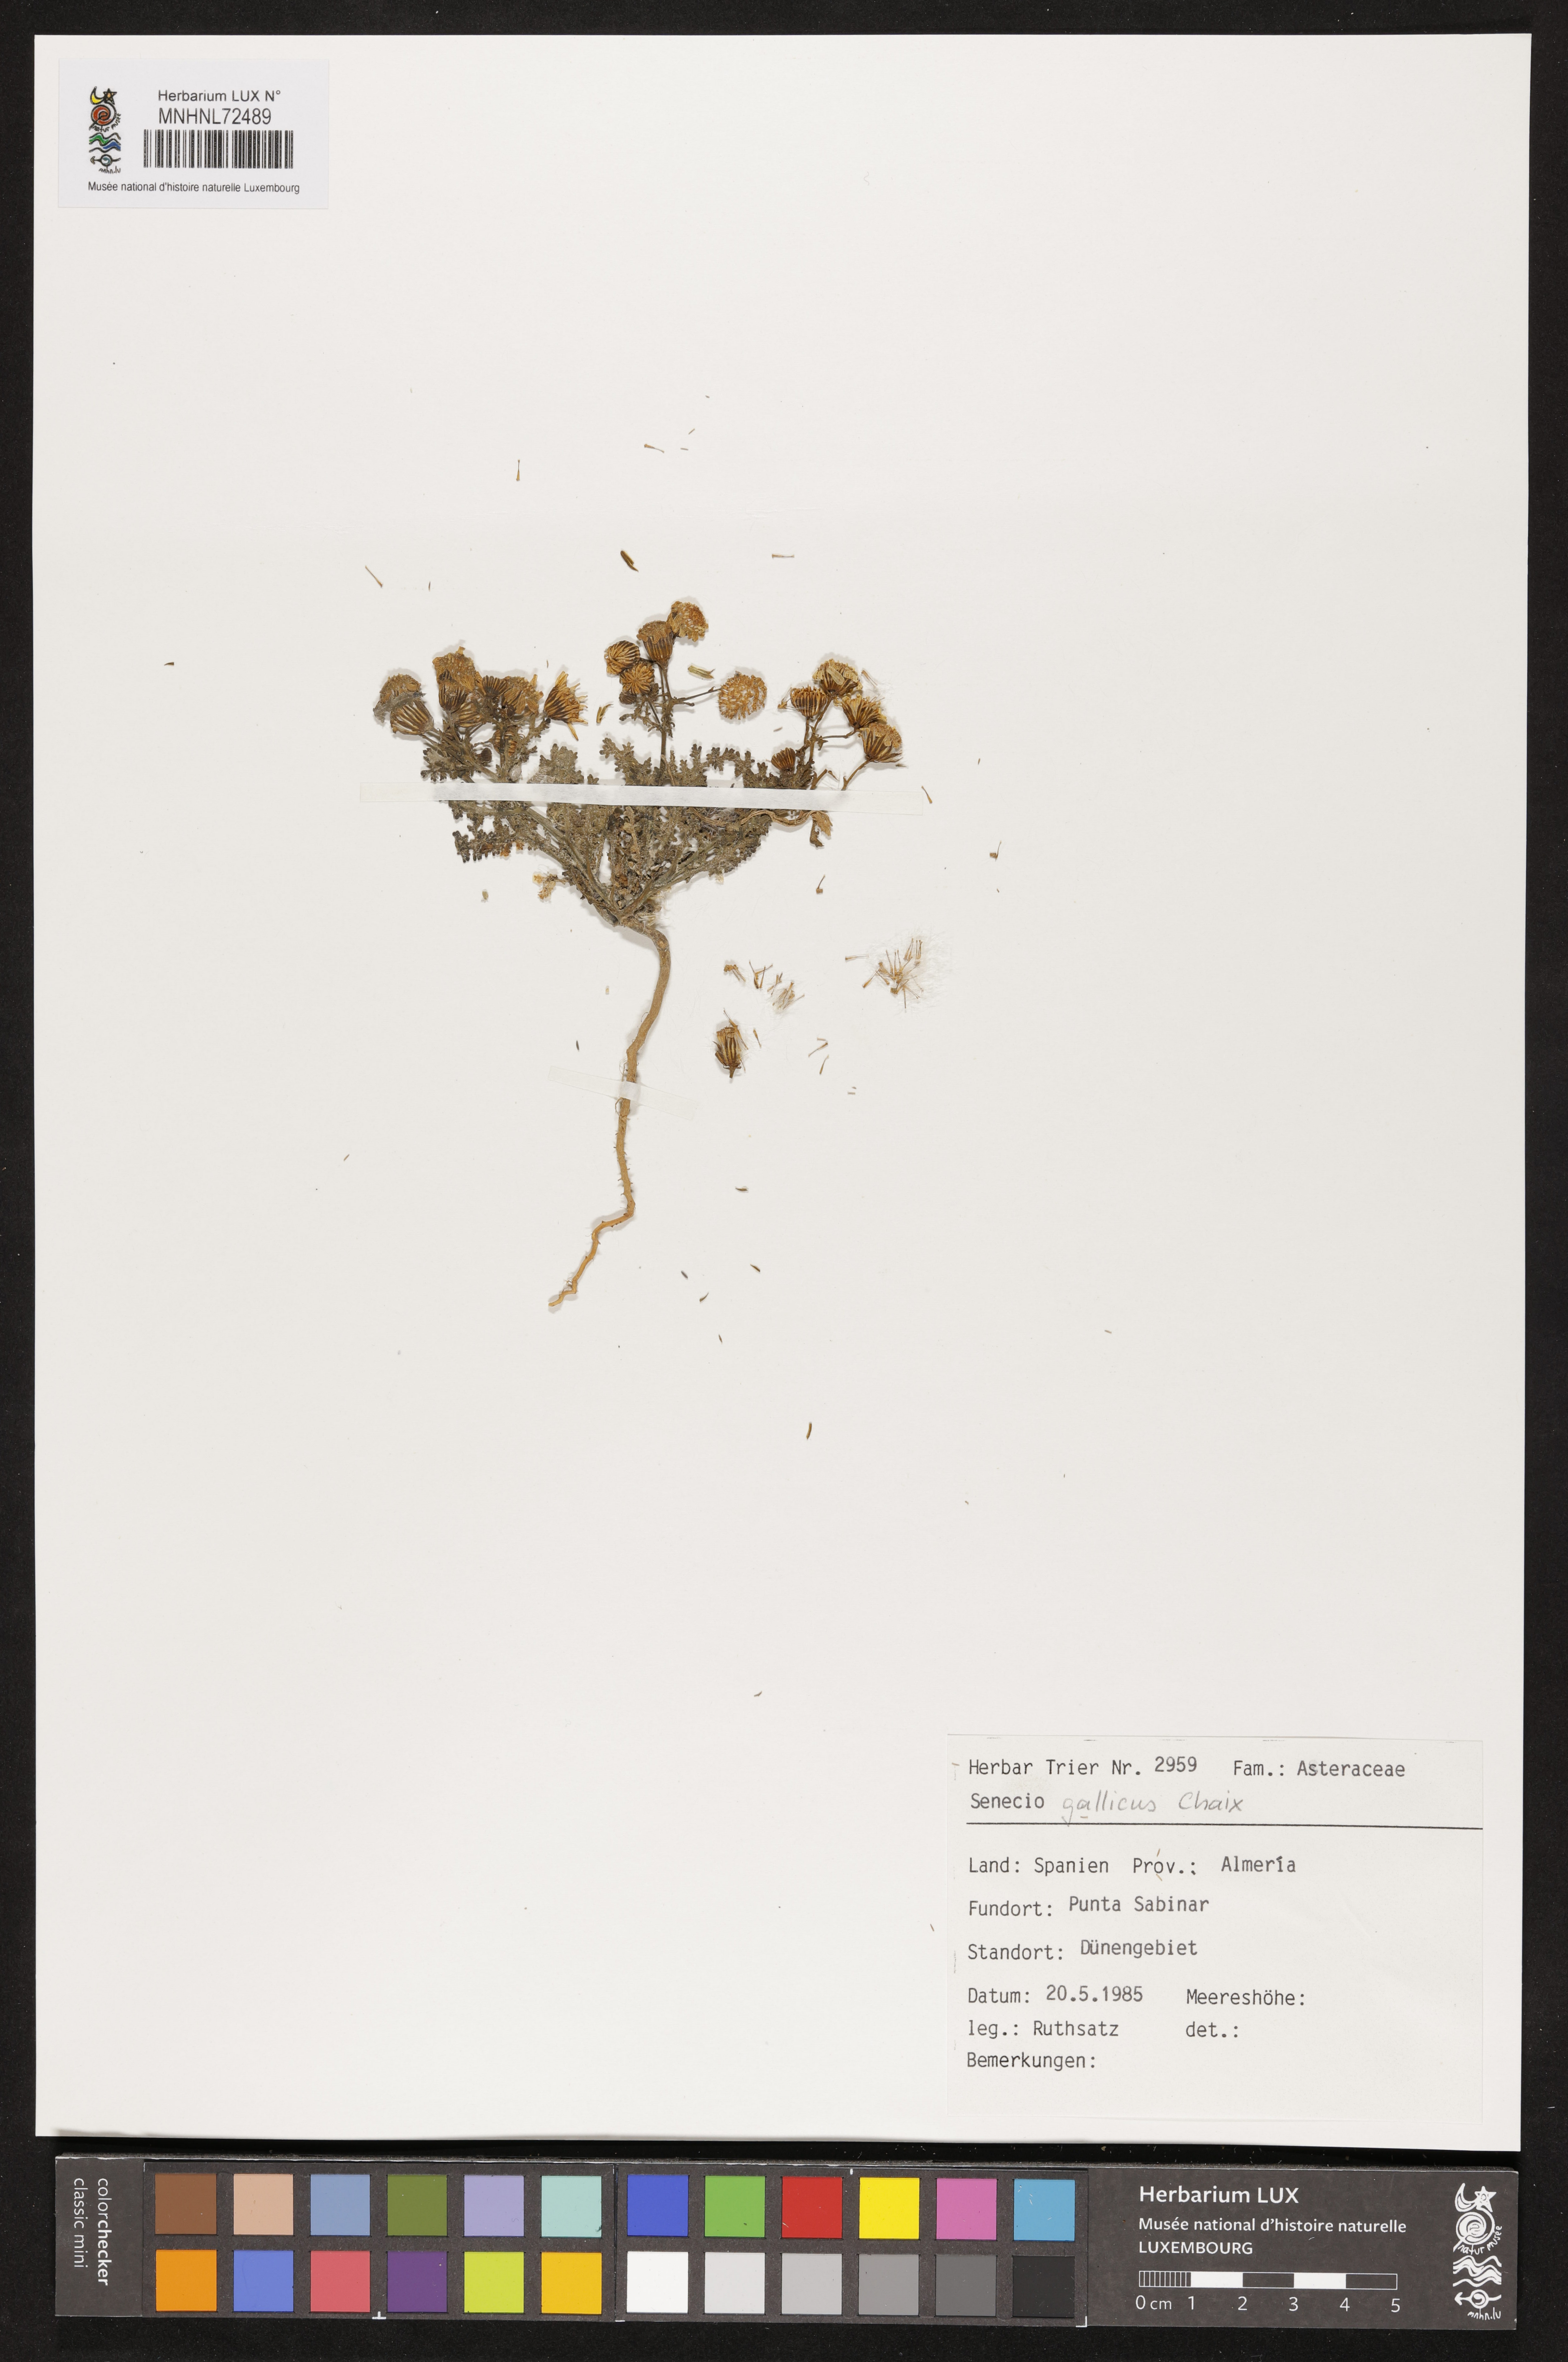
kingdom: Plantae
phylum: Tracheophyta
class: Magnoliopsida
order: Asterales
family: Asteraceae
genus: Senecio
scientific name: Senecio gallicus
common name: French groundsel
